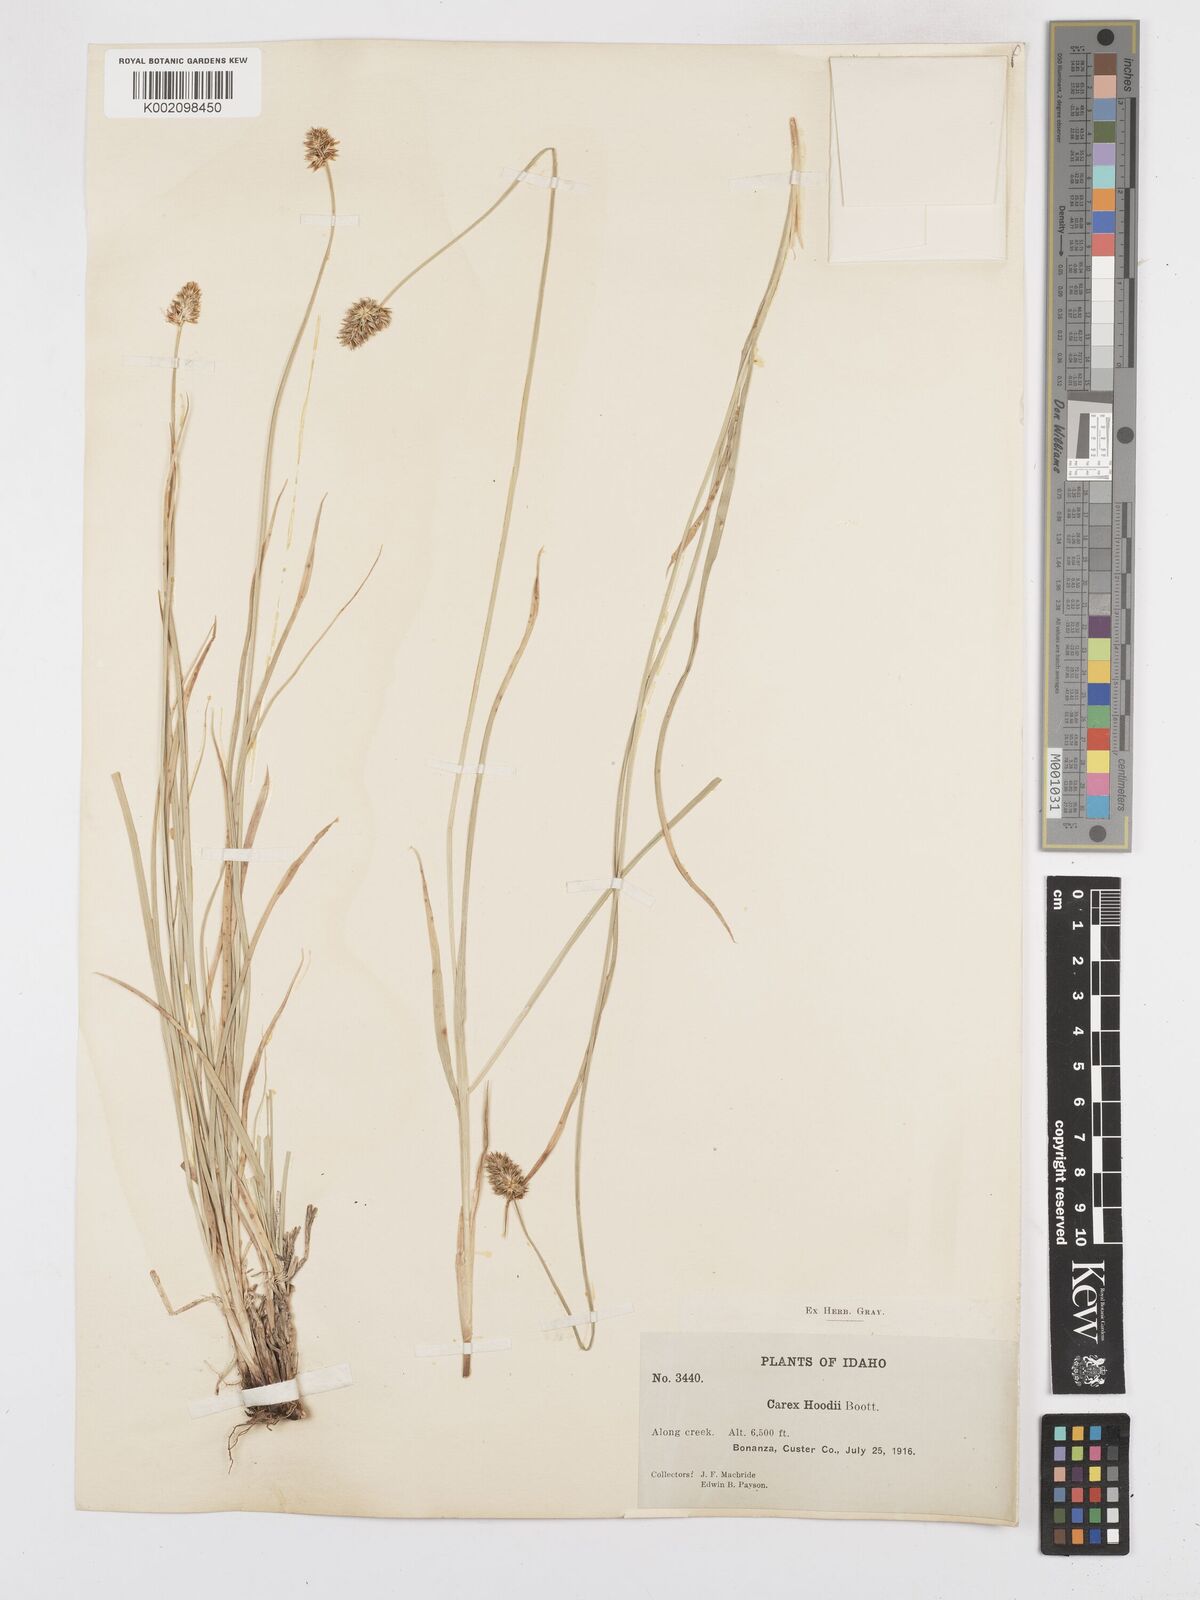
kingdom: Plantae
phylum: Tracheophyta
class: Liliopsida
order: Poales
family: Cyperaceae
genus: Carex
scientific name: Carex hoodii
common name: Hood's sedge
